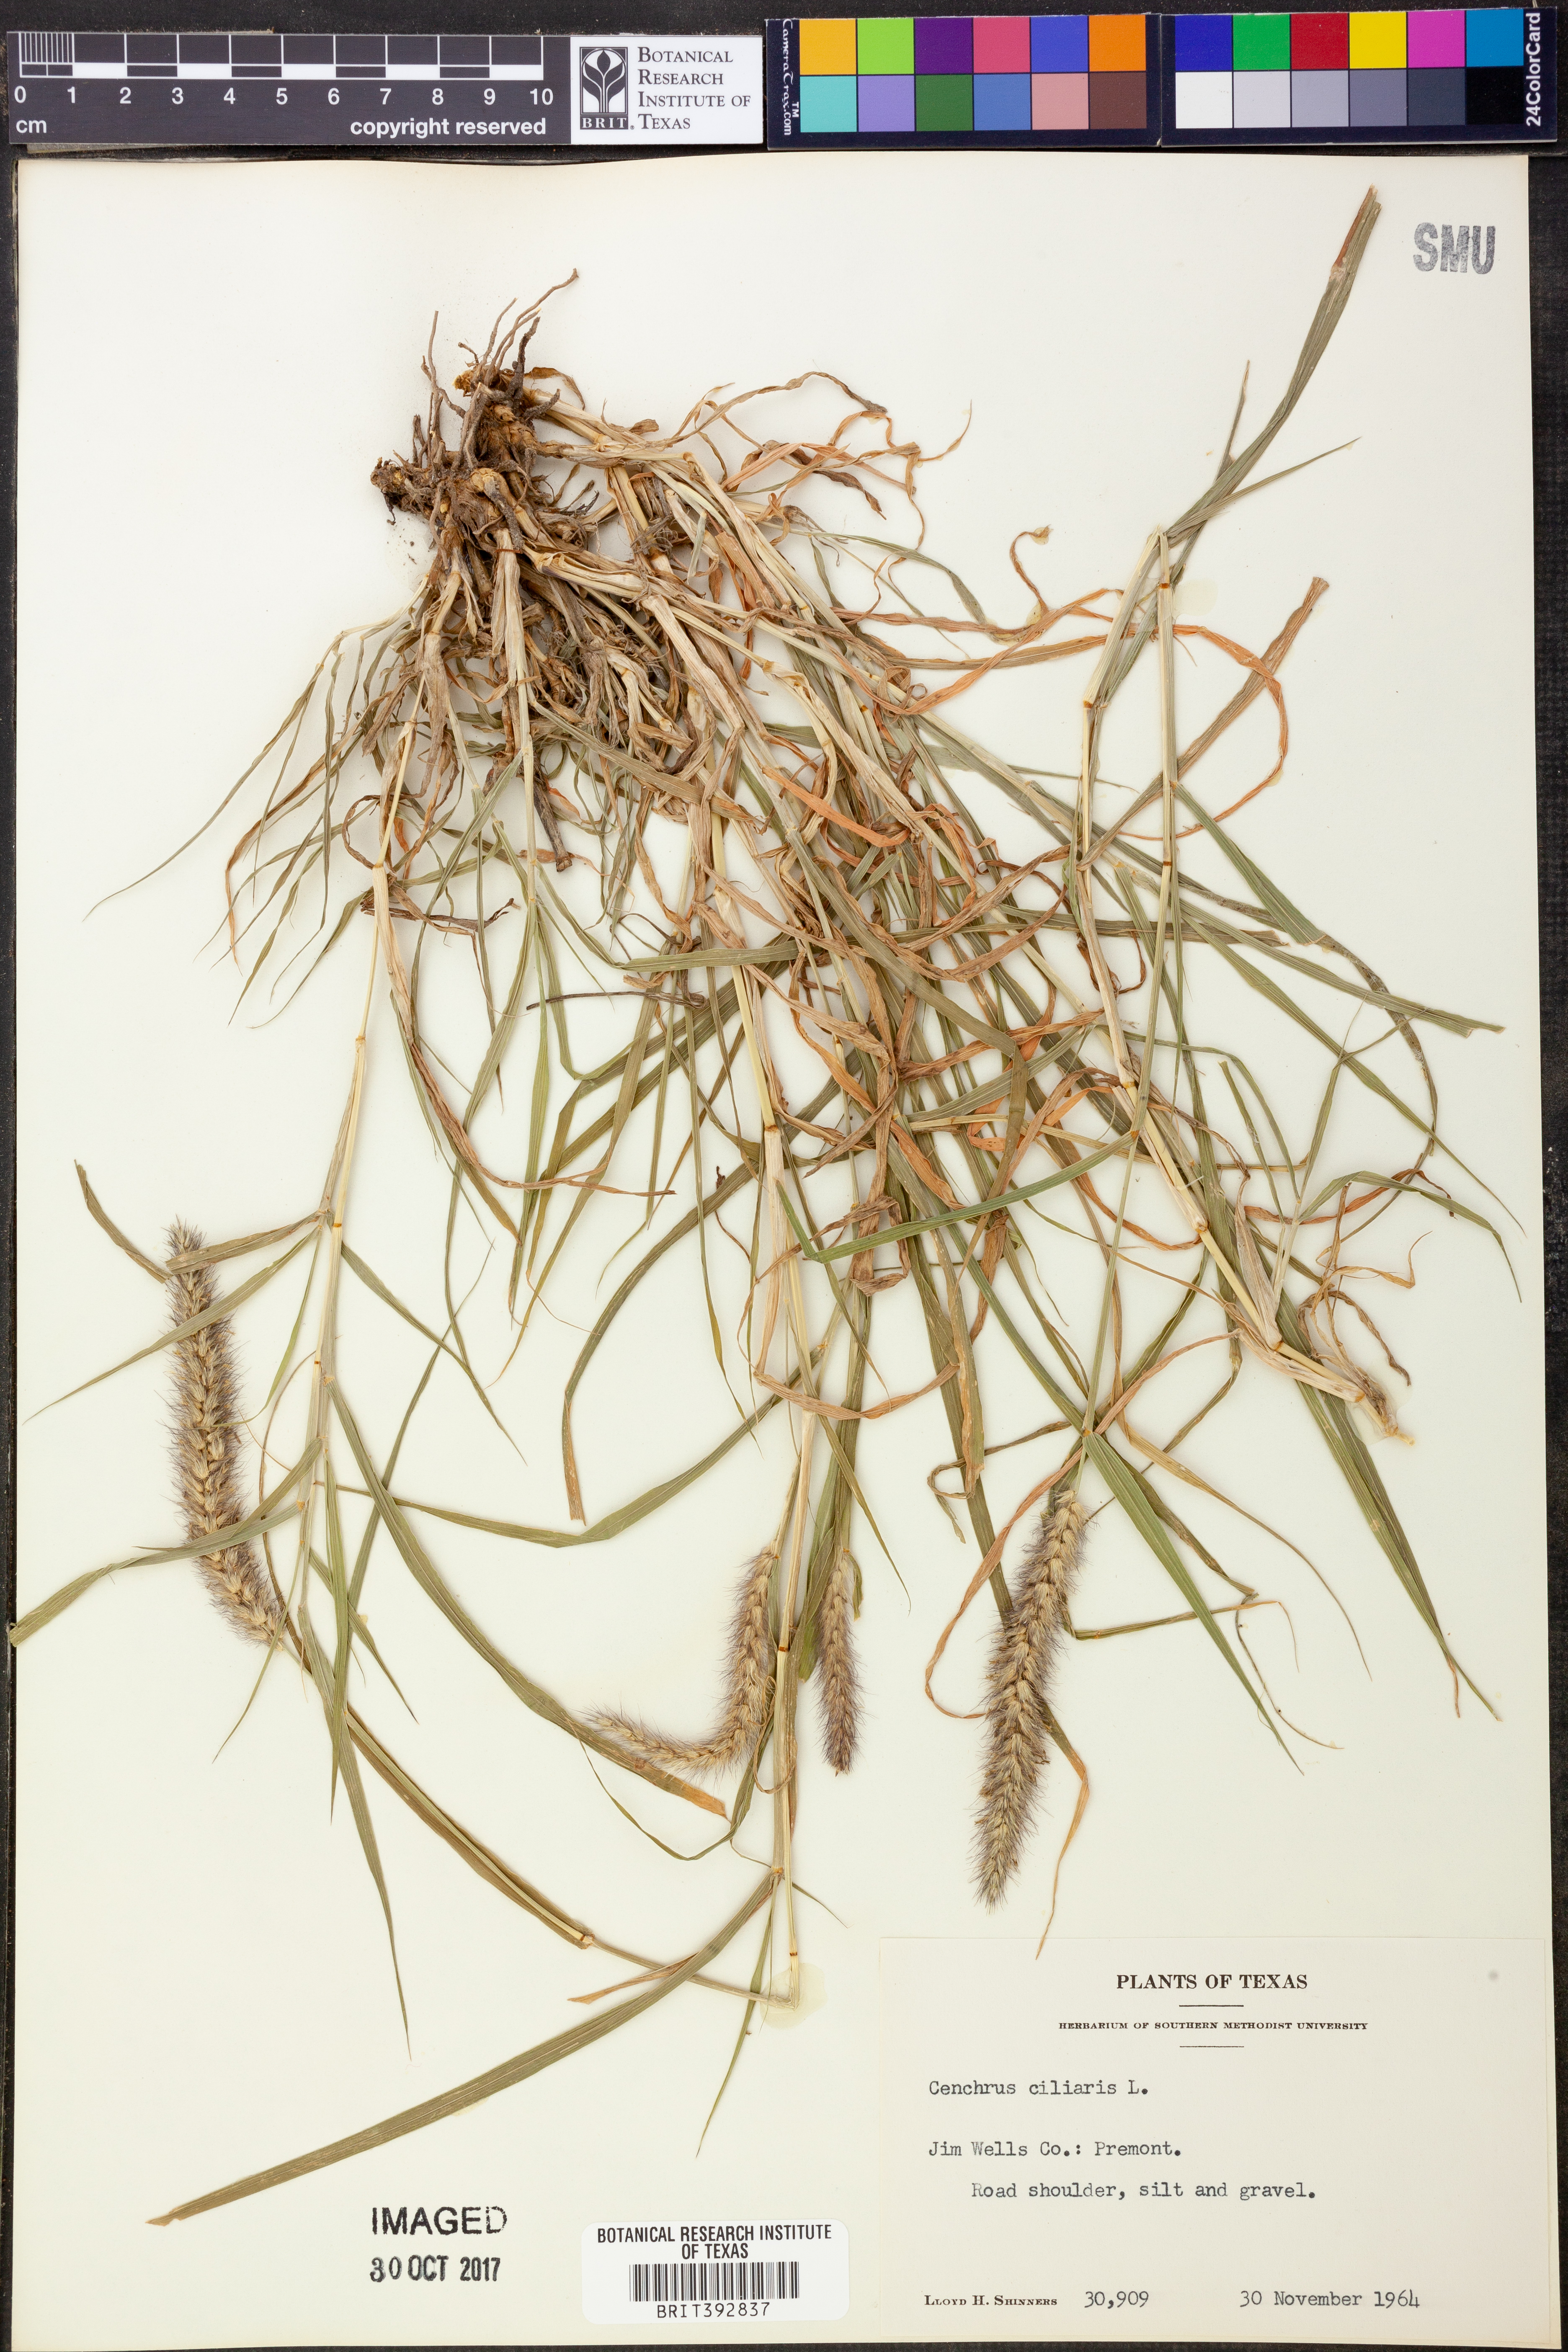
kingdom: Plantae
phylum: Tracheophyta
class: Liliopsida
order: Poales
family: Poaceae
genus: Cenchrus
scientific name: Cenchrus ciliaris
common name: Buffelgrass
